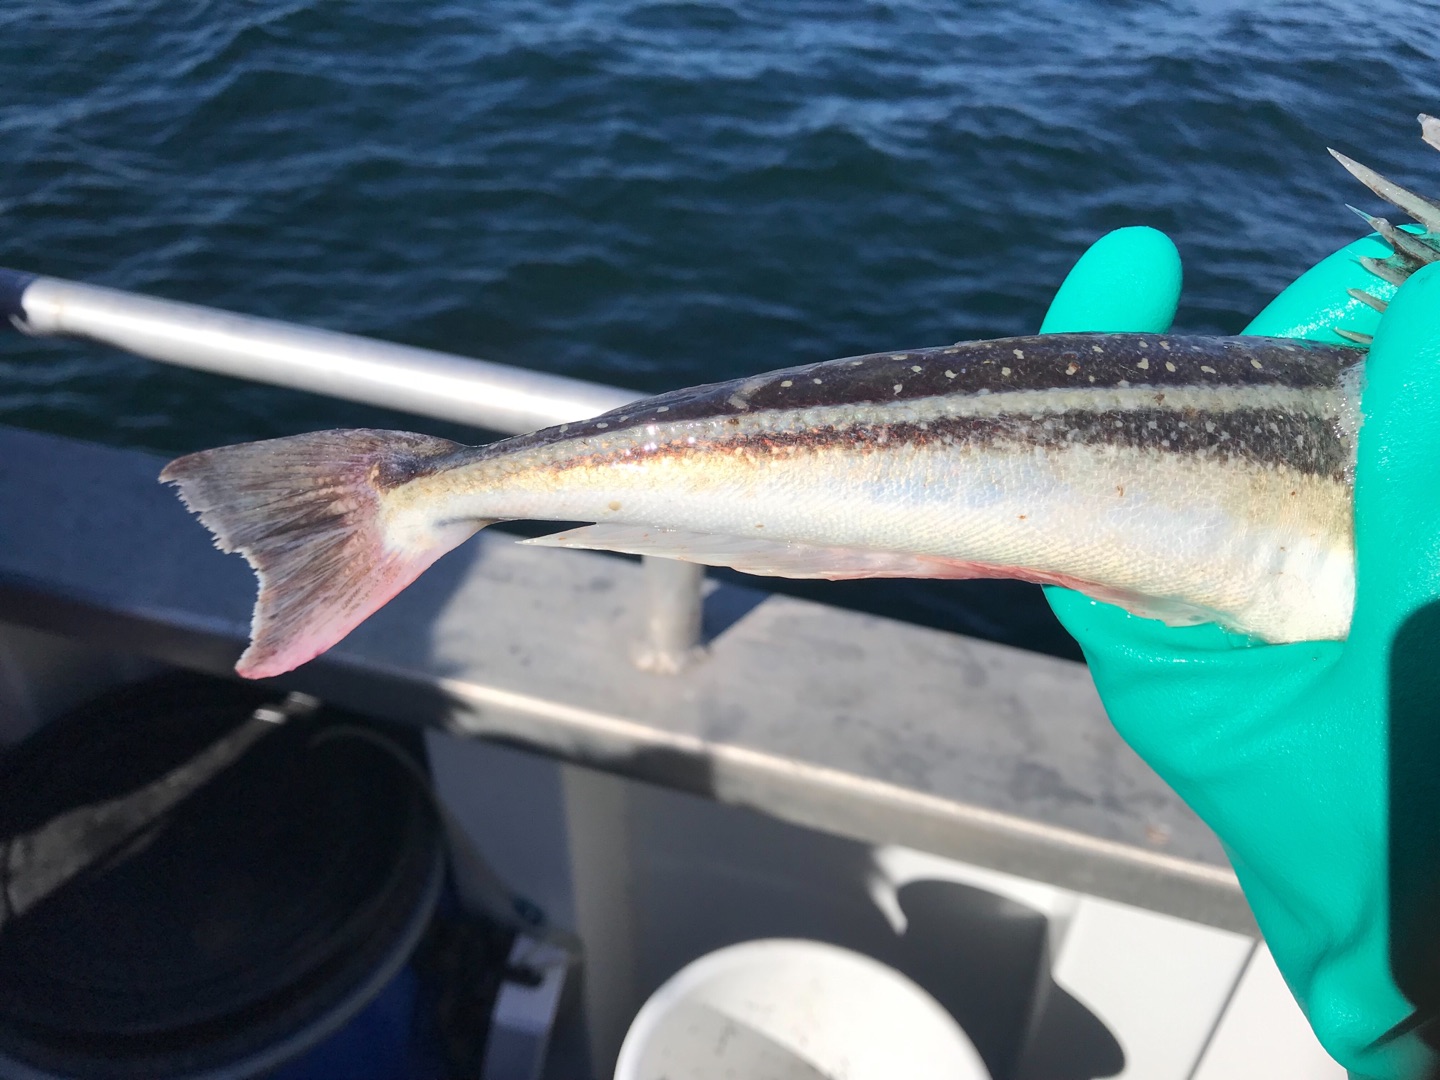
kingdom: Animalia
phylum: Chordata
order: Scorpaeniformes
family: Triglidae
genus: Eutrigla
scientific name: Eutrigla gurnardus
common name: Grå knurhane
